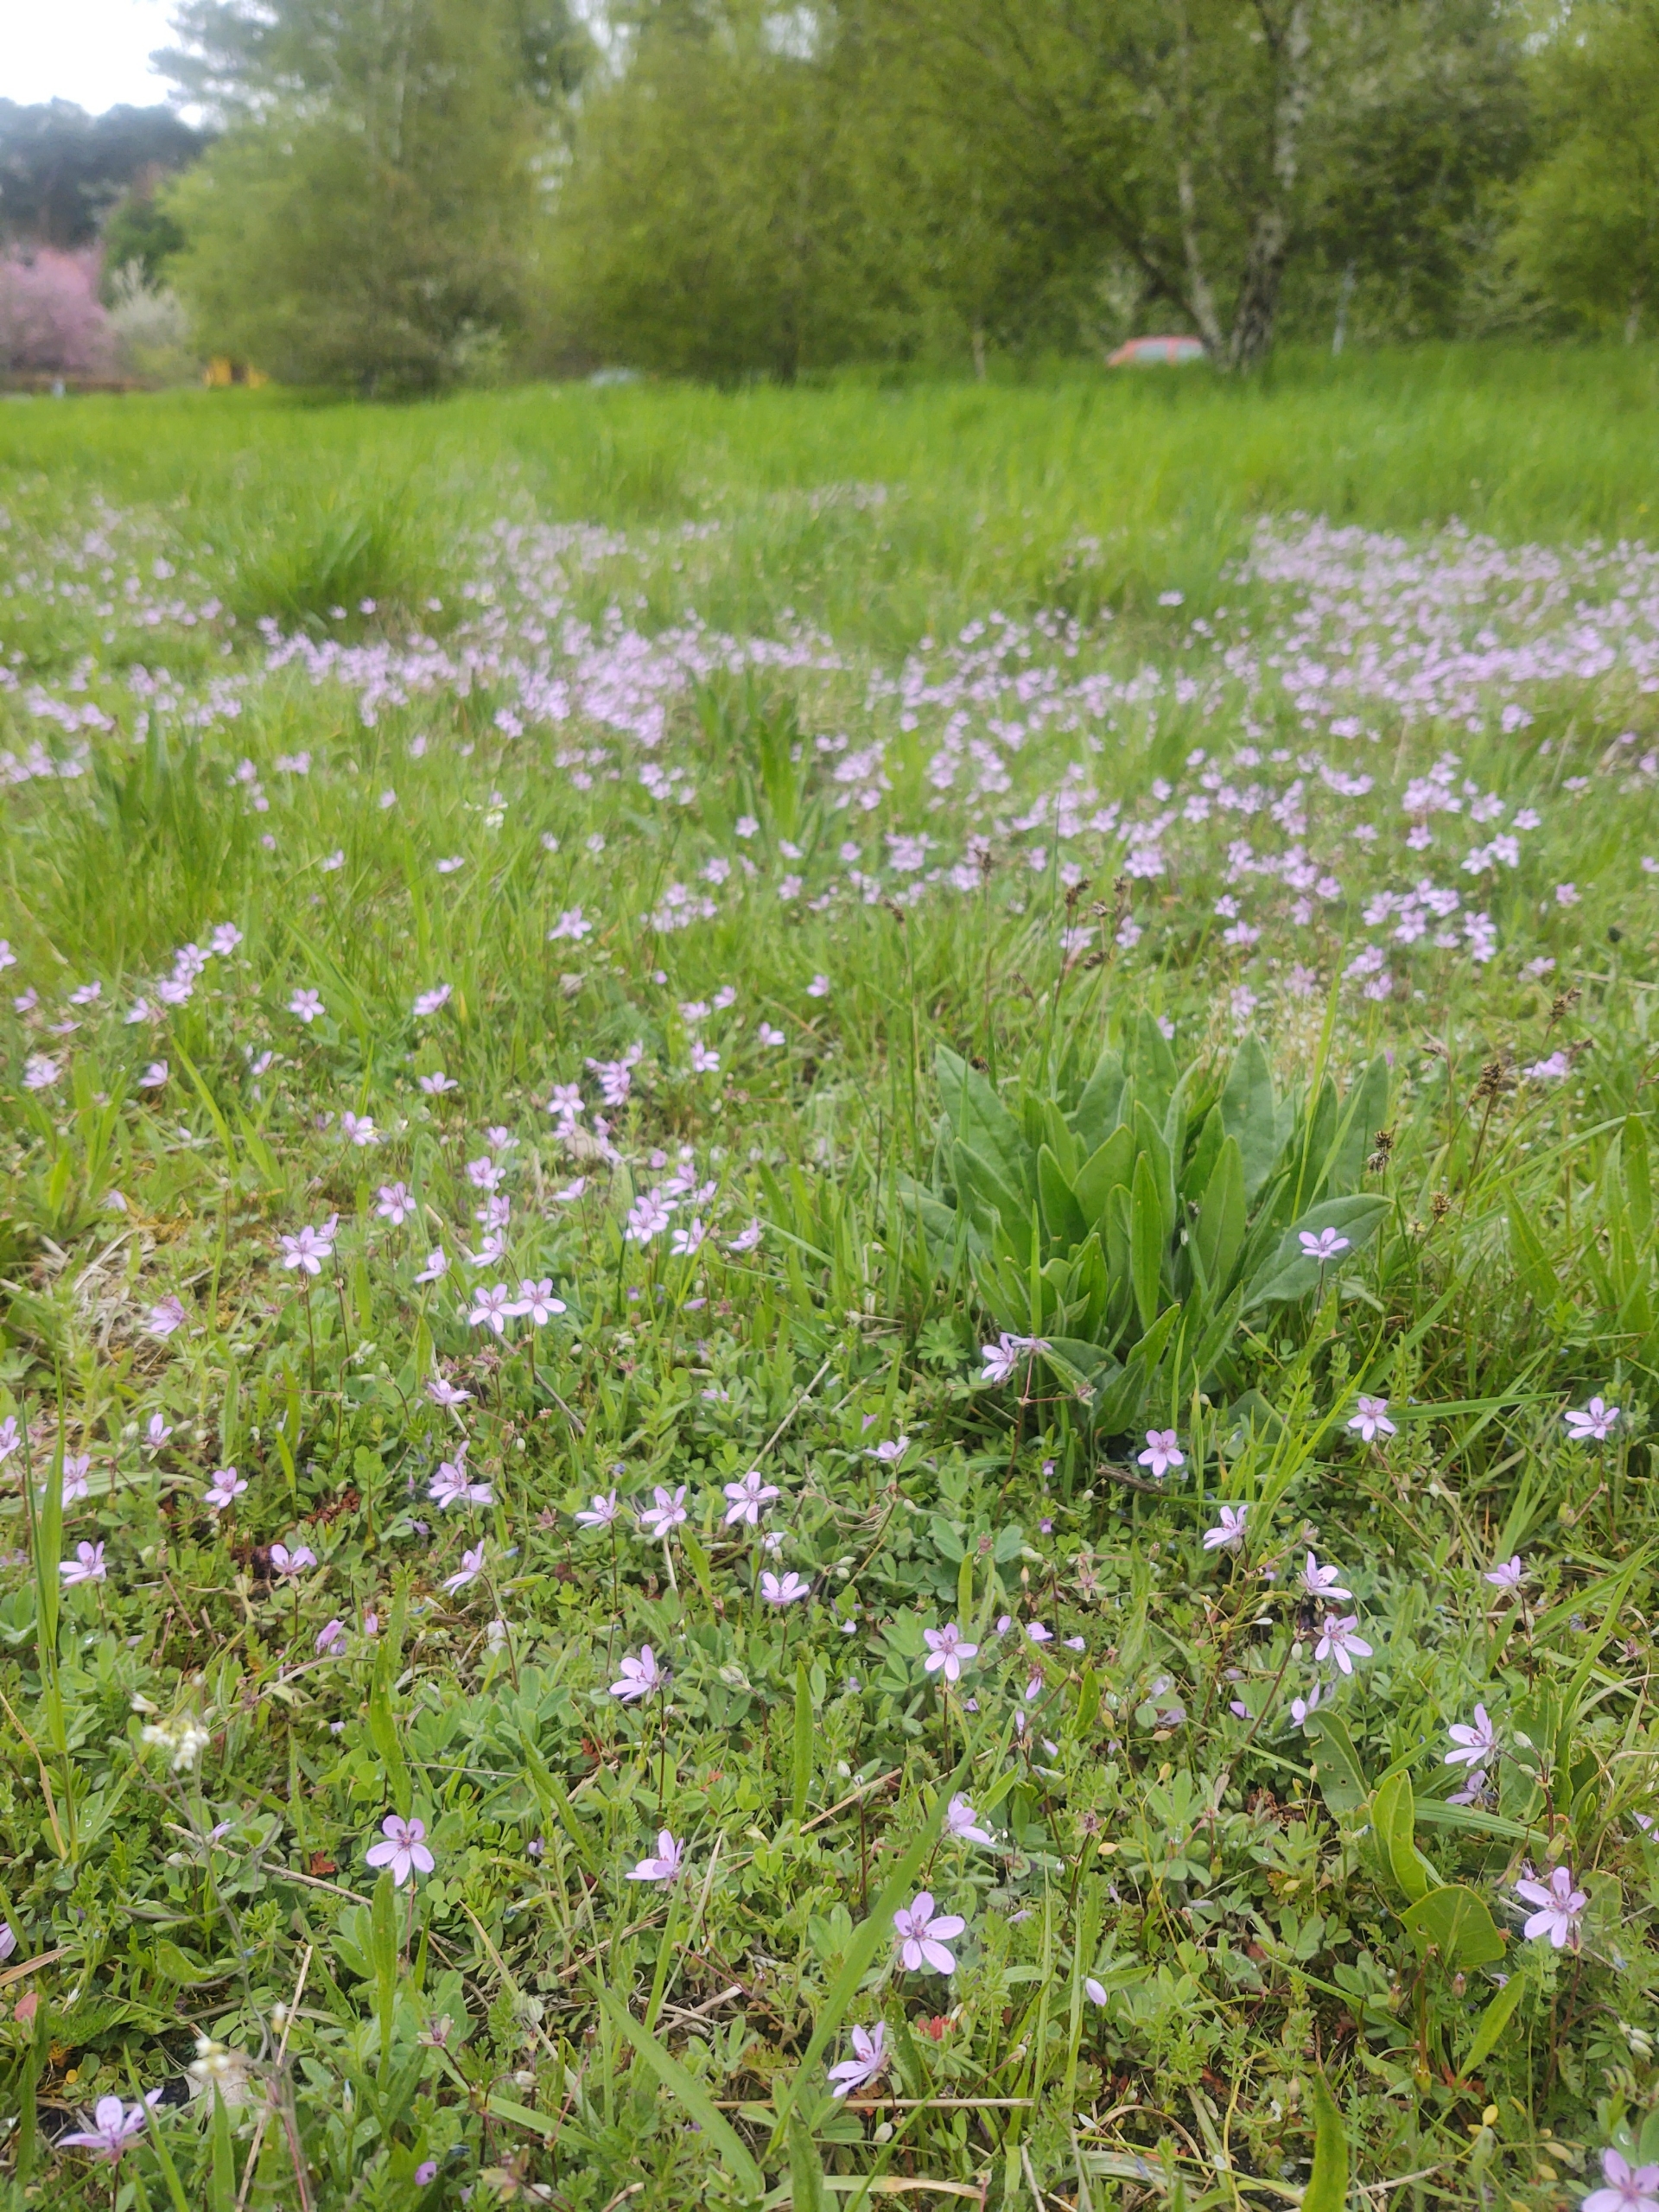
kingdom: Plantae
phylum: Tracheophyta
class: Magnoliopsida
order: Geraniales
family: Geraniaceae
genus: Erodium
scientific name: Erodium cicutarium
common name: Hejrenæb
